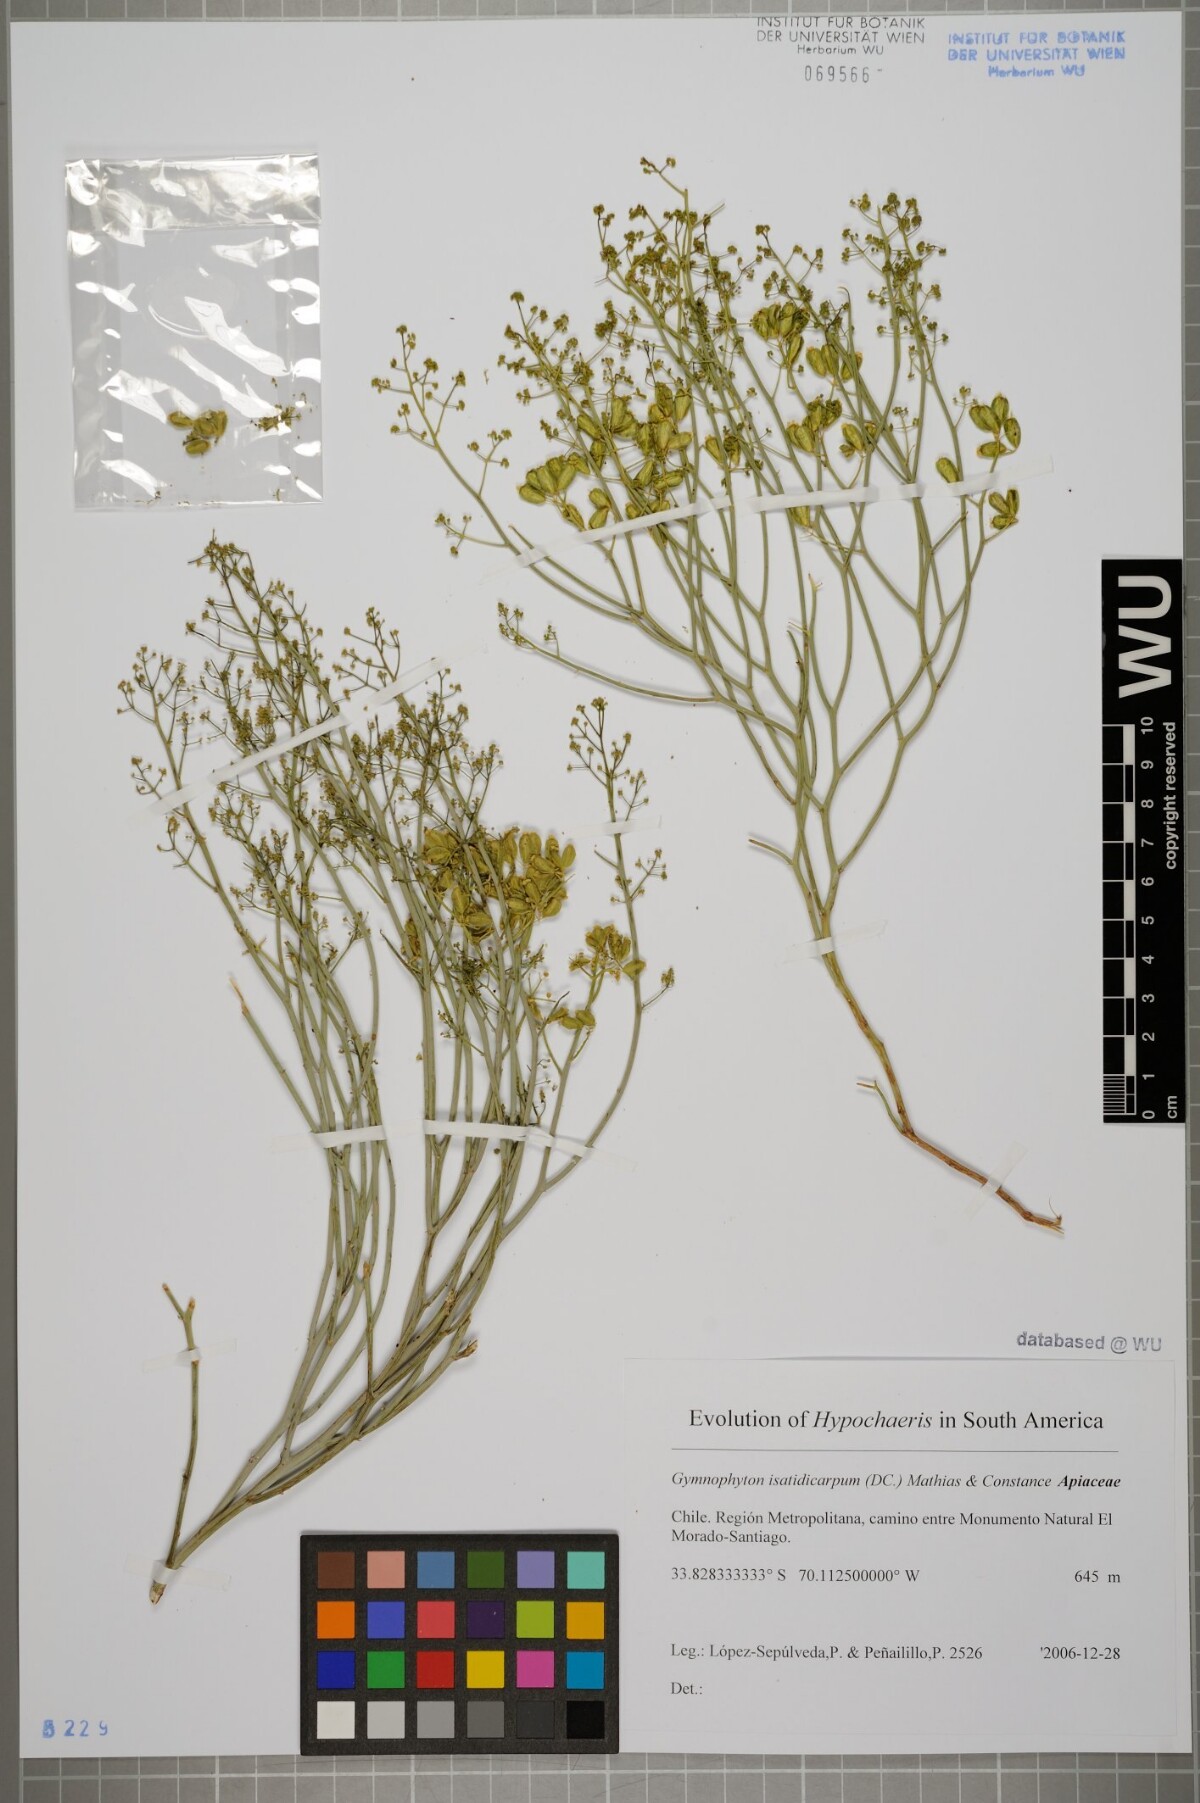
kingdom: Plantae
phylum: Tracheophyta
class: Magnoliopsida
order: Apiales
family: Apiaceae
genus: Gymnophyton
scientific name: Gymnophyton isatidicarpum
